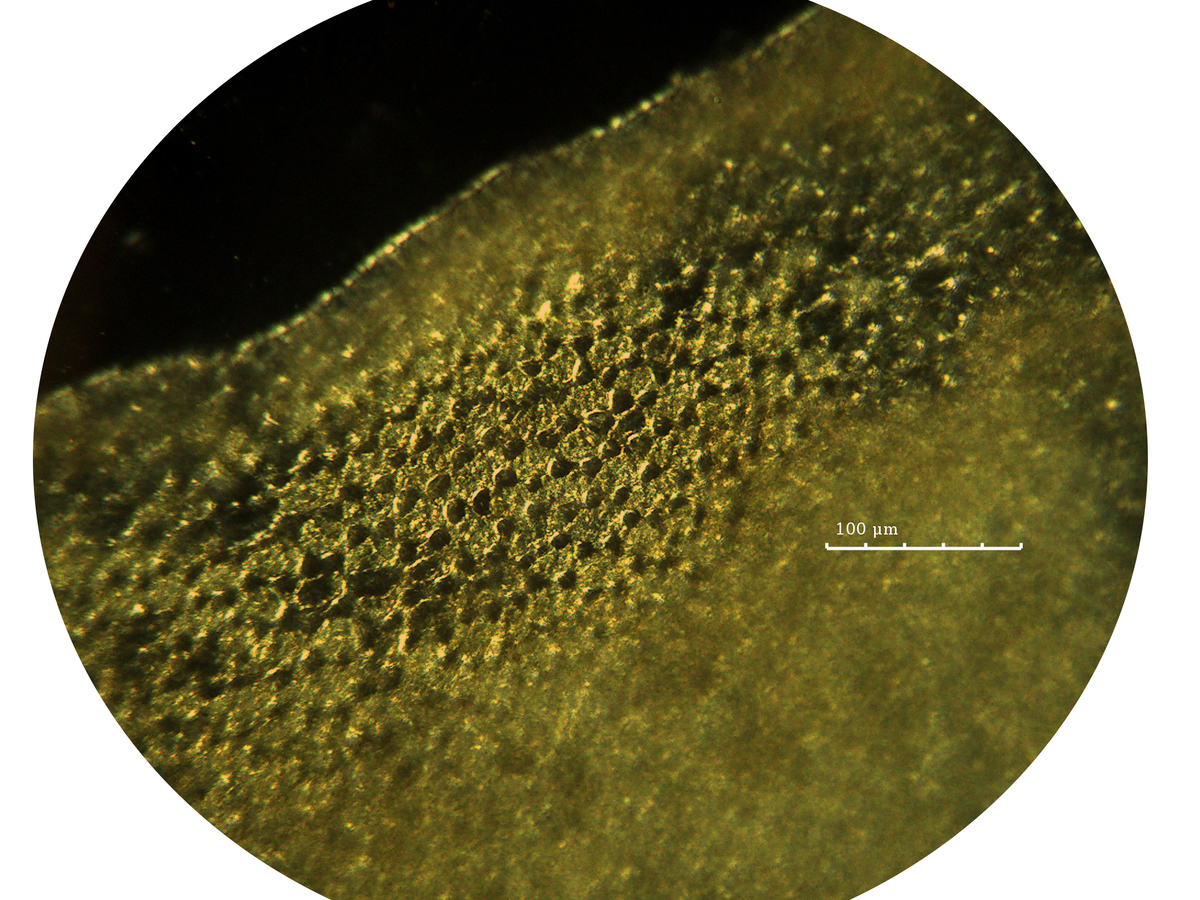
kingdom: Plantae
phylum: Marchantiophyta
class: Jungermanniopsida
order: Jungermanniales
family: Plagiochilaceae
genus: Plagiochila
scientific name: Plagiochila repanda
